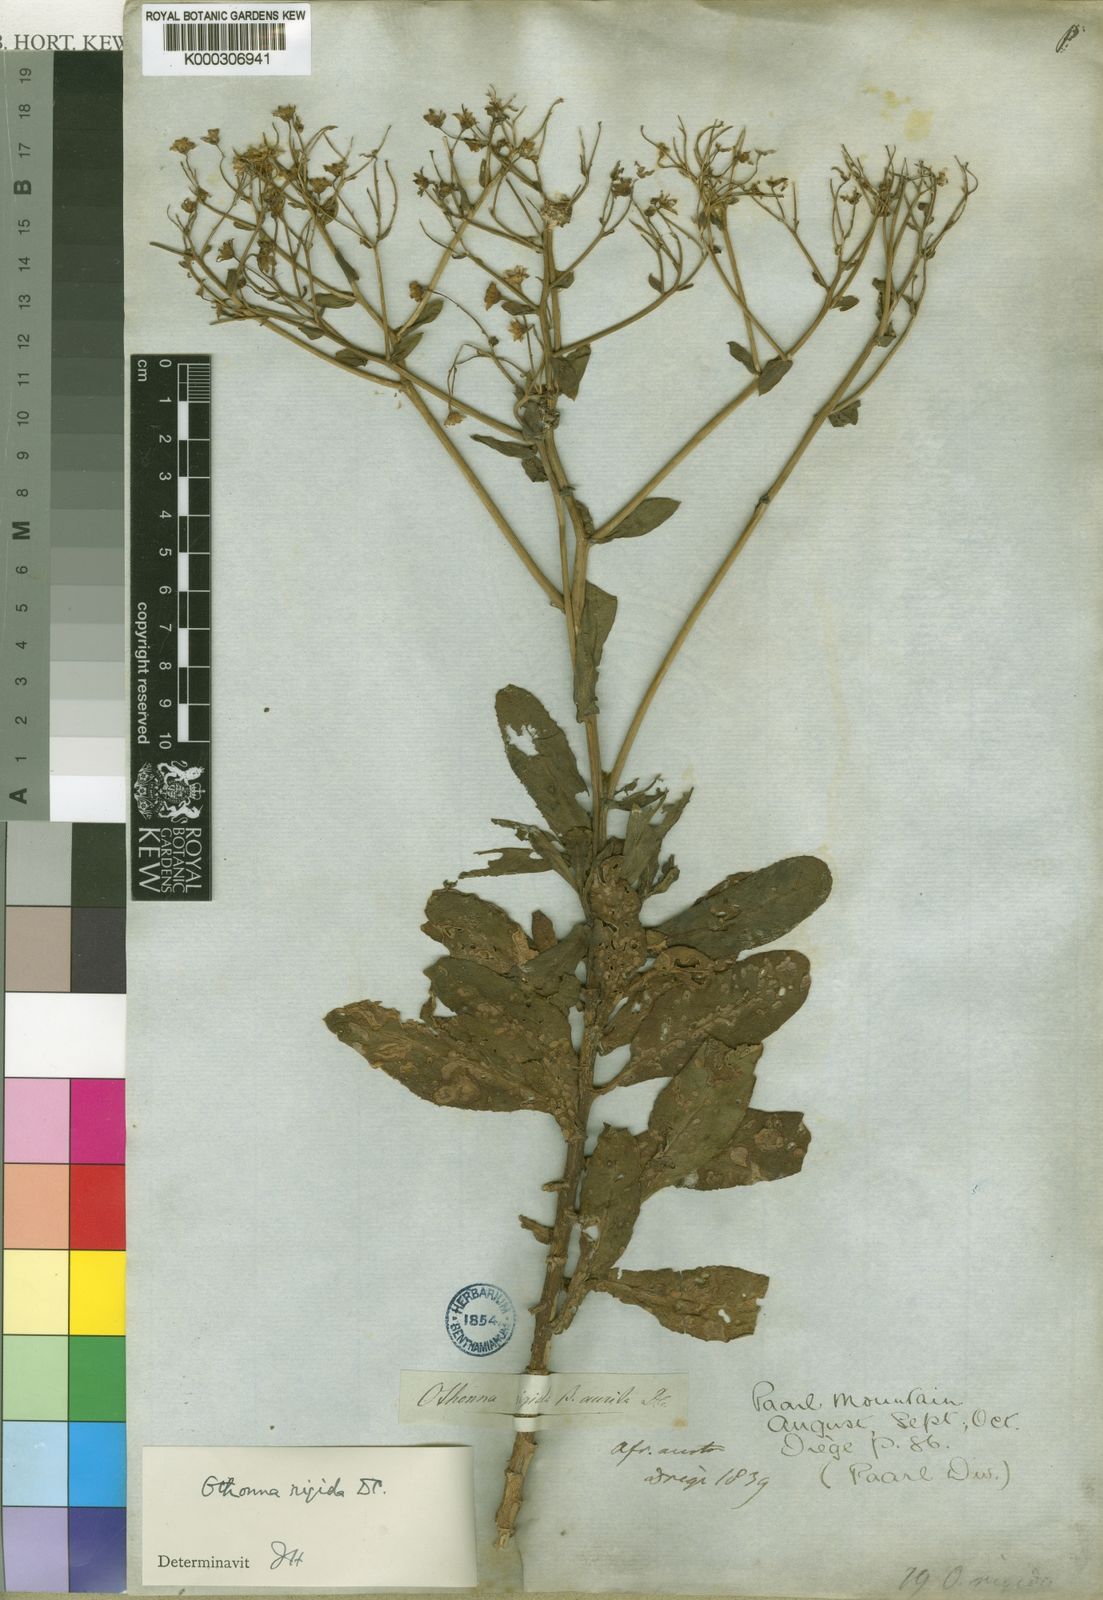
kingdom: Plantae
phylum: Tracheophyta
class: Magnoliopsida
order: Asterales
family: Asteraceae
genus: Othonna
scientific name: Othonna parviflora
